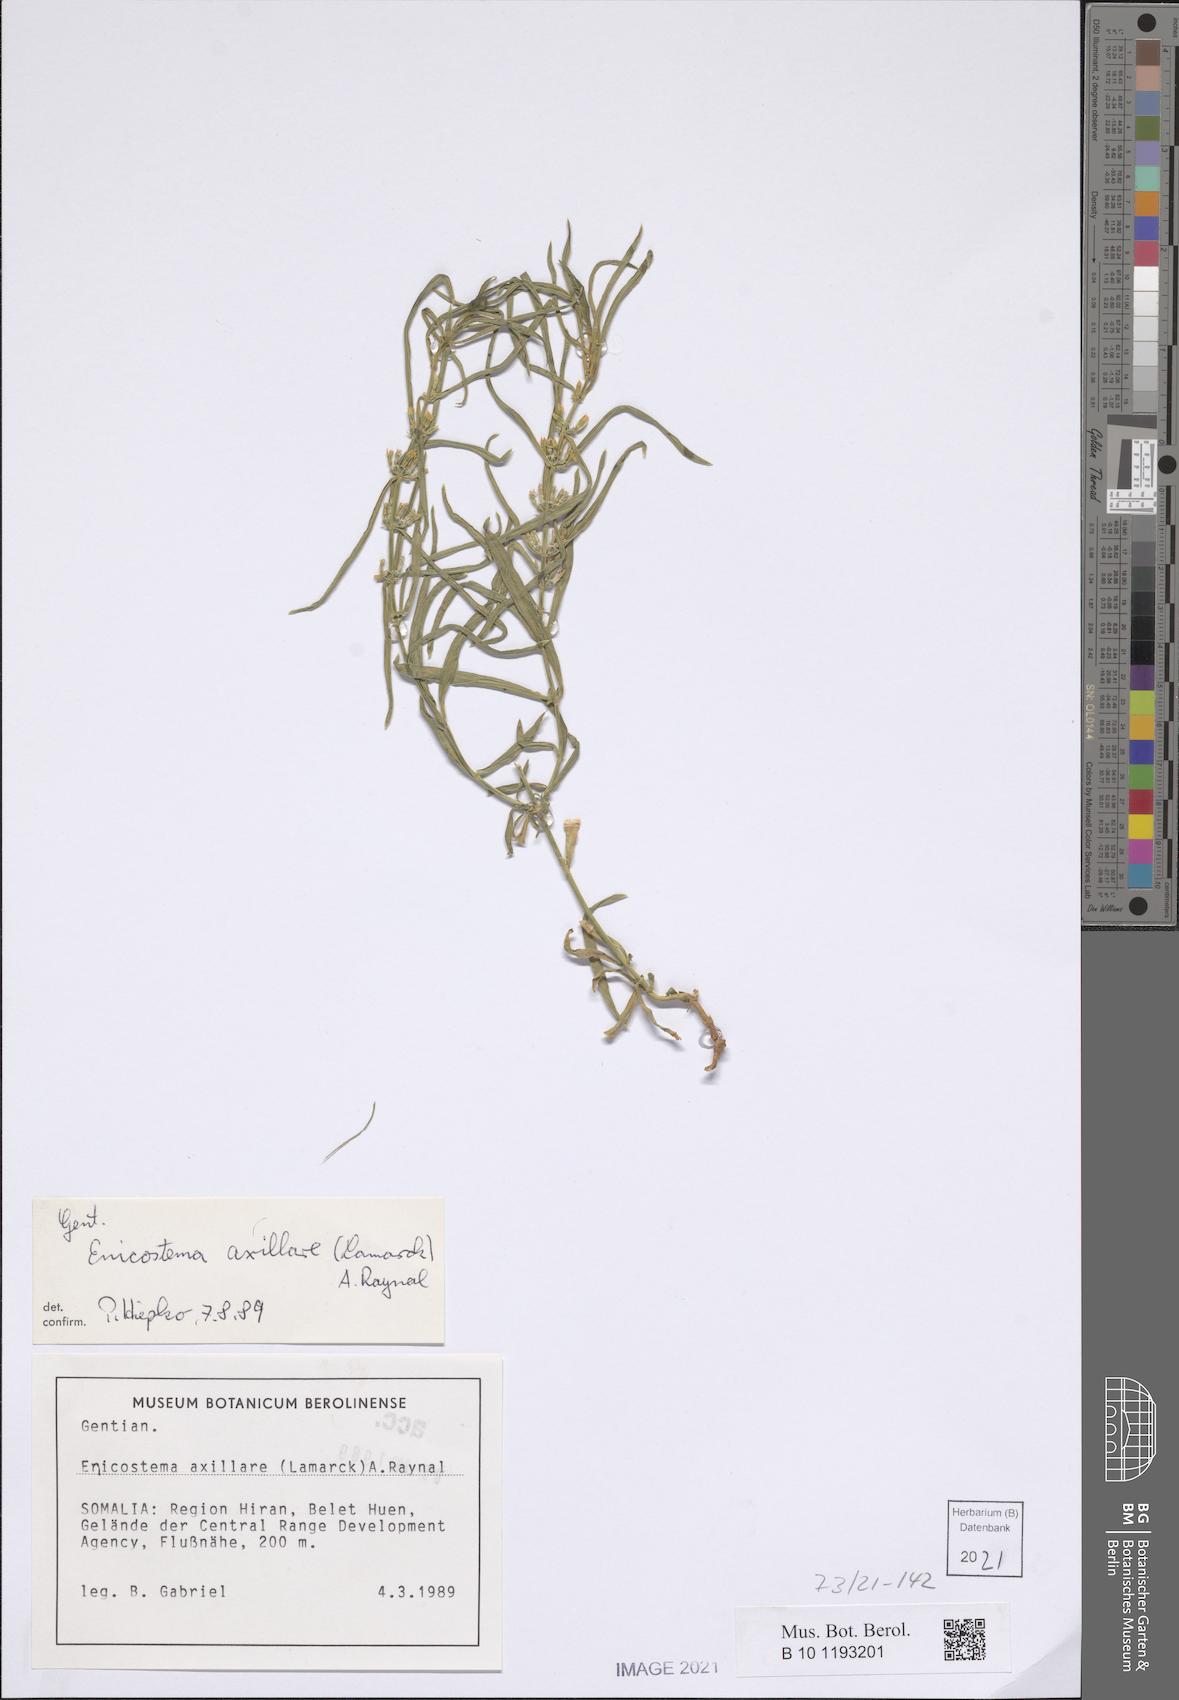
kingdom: Plantae
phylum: Tracheophyta
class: Magnoliopsida
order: Gentianales
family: Gentianaceae
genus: Enicostema
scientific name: Enicostema axillare
